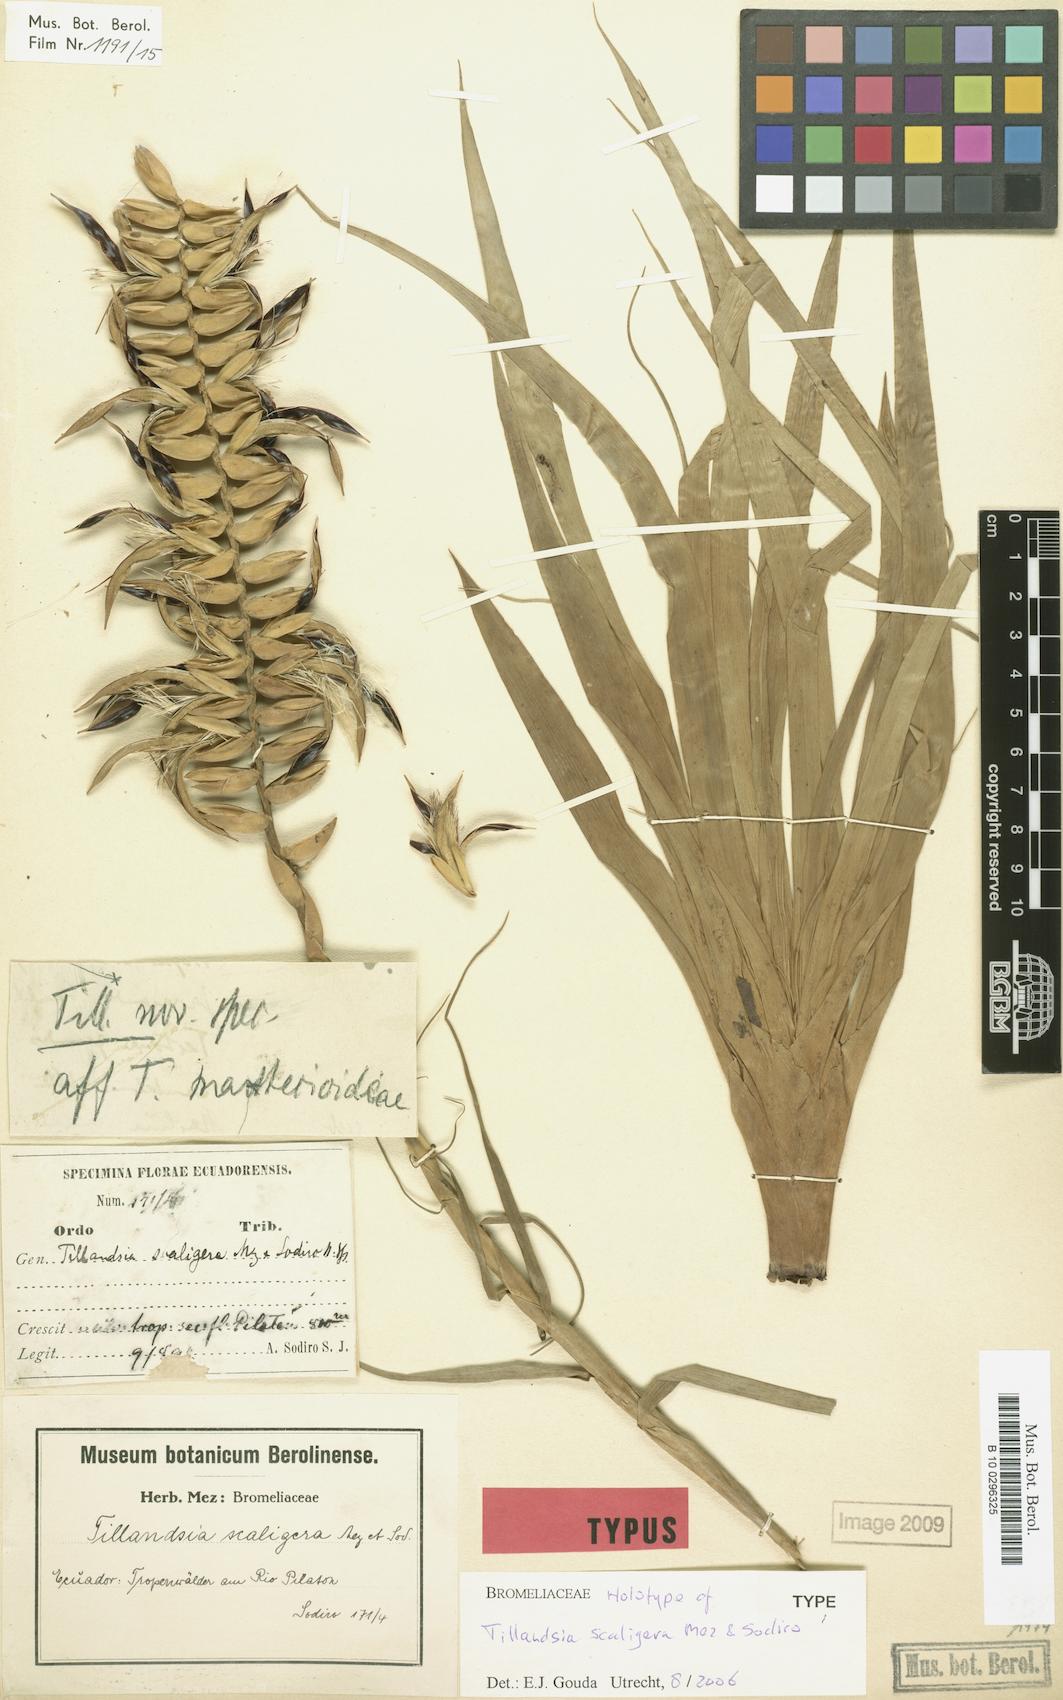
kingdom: Plantae
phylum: Tracheophyta
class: Liliopsida
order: Poales
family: Bromeliaceae
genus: Lemeltonia
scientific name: Lemeltonia scaligera
